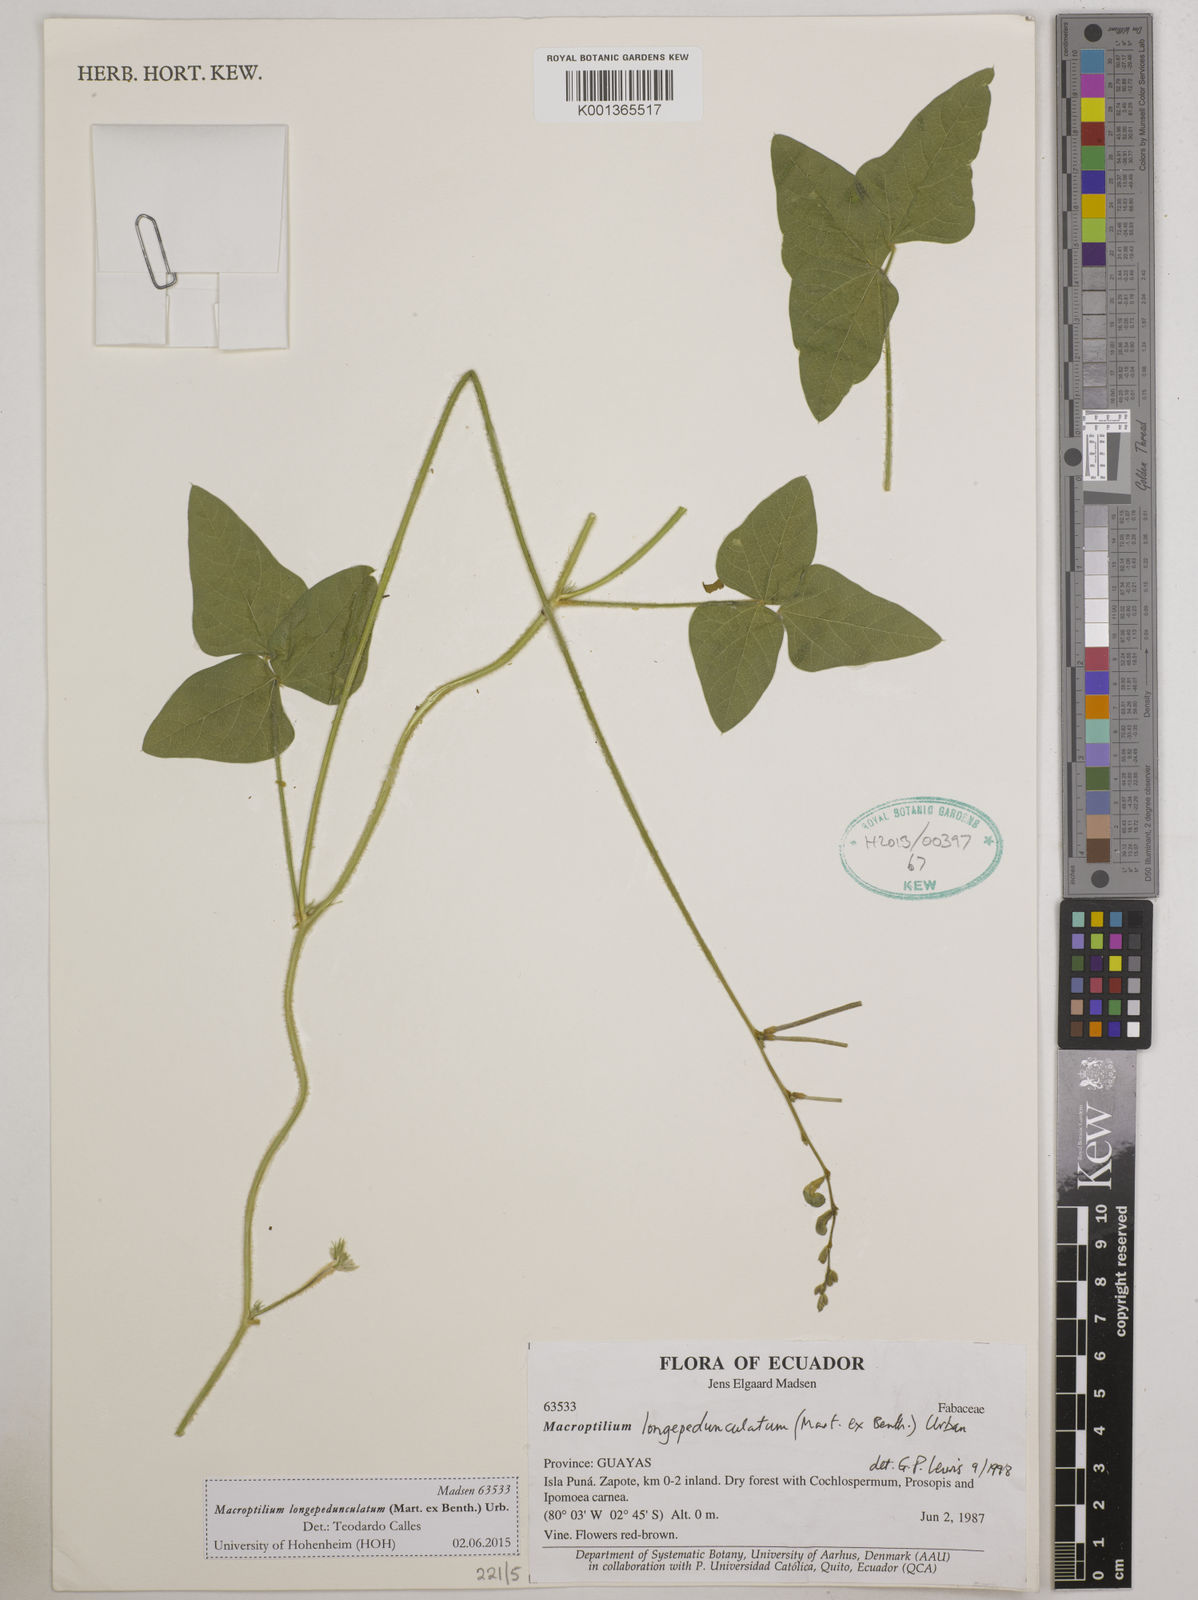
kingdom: Plantae
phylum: Tracheophyta
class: Magnoliopsida
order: Fabales
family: Fabaceae
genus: Macroptilium
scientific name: Macroptilium longepedunculatum
